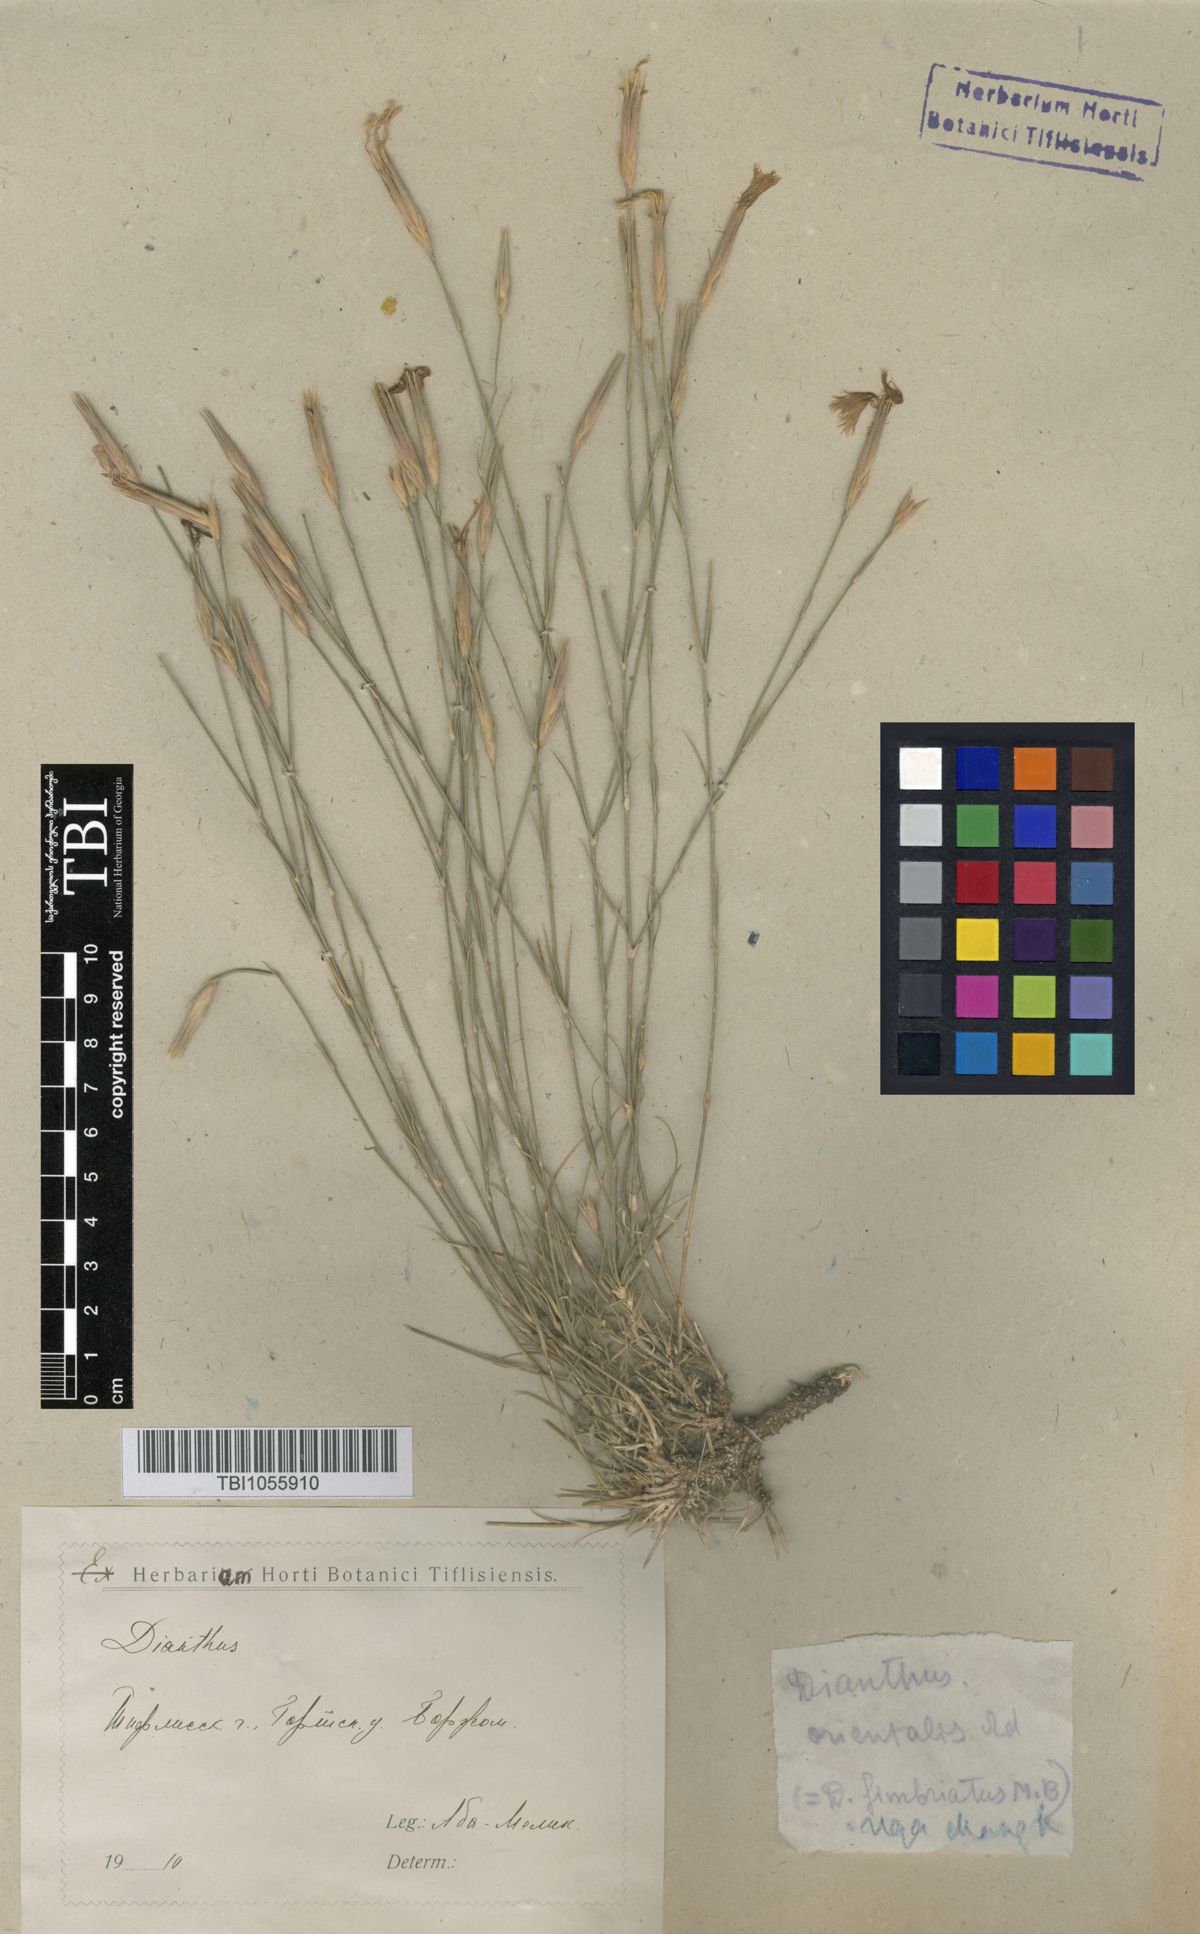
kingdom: Plantae
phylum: Tracheophyta
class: Magnoliopsida
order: Caryophyllales
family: Caryophyllaceae
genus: Dianthus
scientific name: Dianthus orientalis
